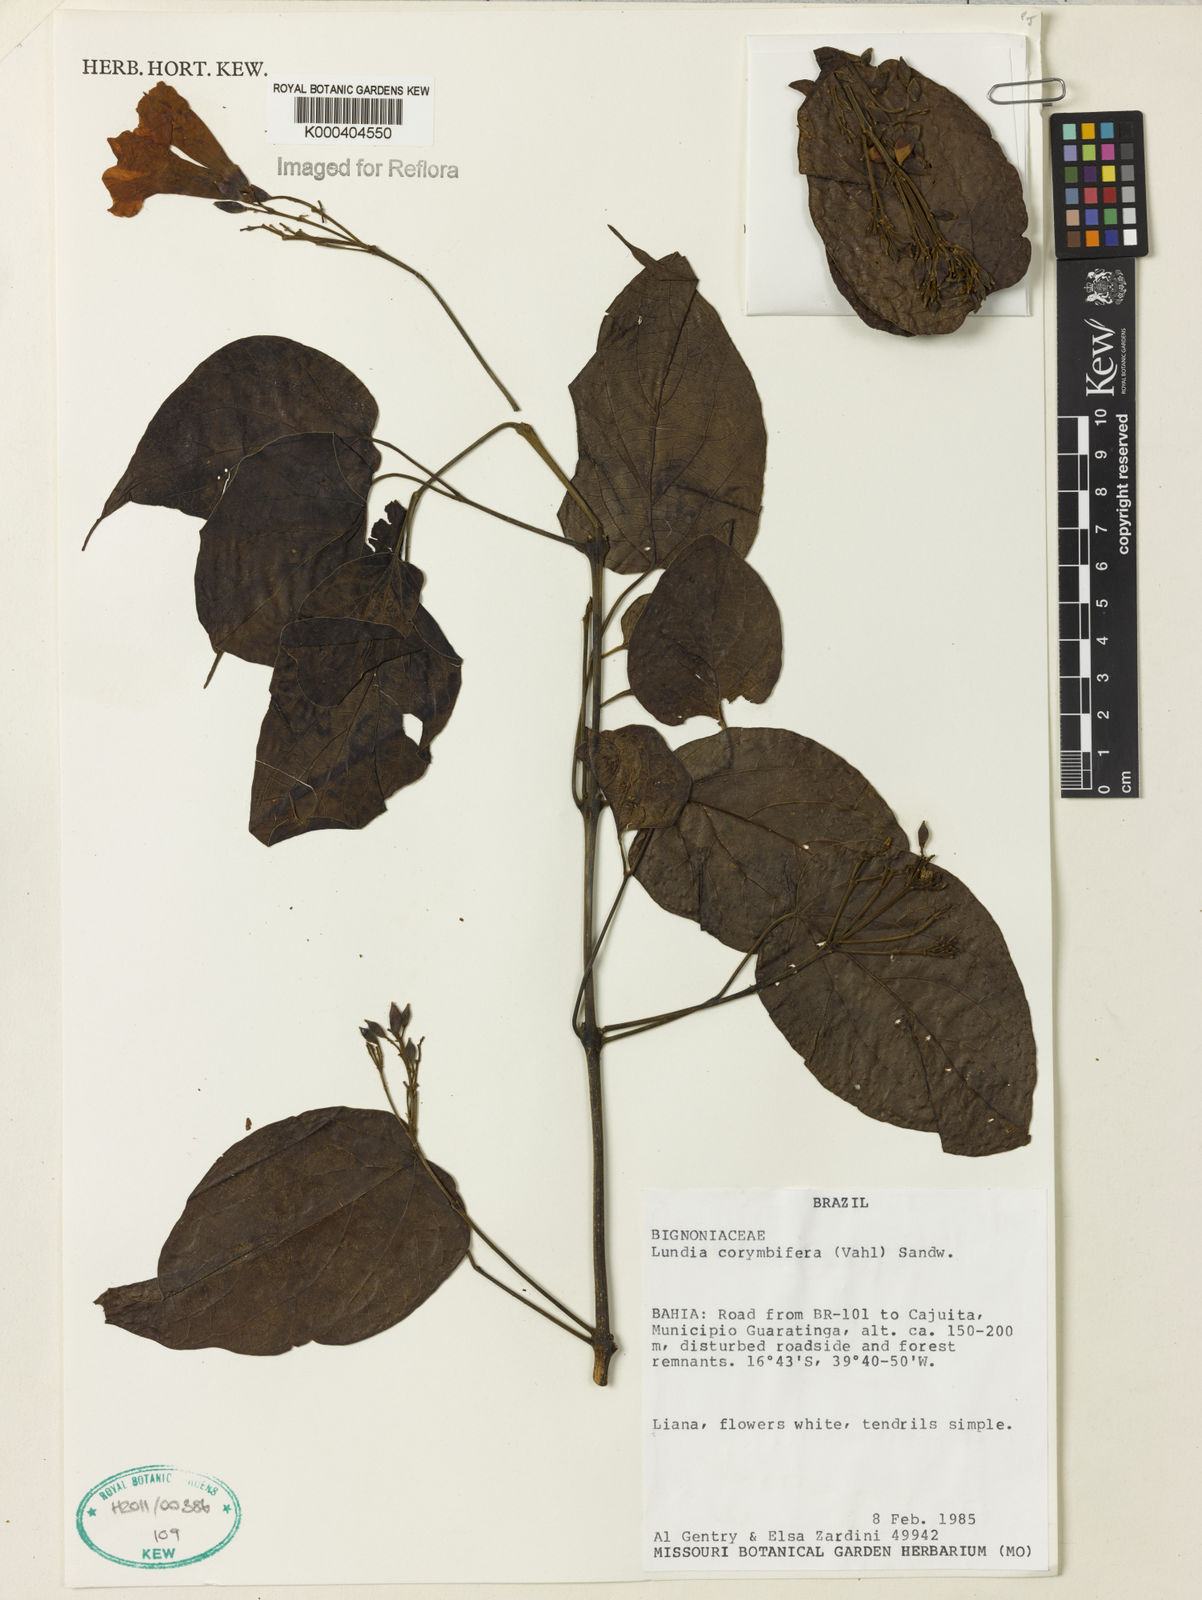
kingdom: Plantae
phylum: Tracheophyta
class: Magnoliopsida
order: Lamiales
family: Bignoniaceae
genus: Lundia
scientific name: Lundia corymbifera
